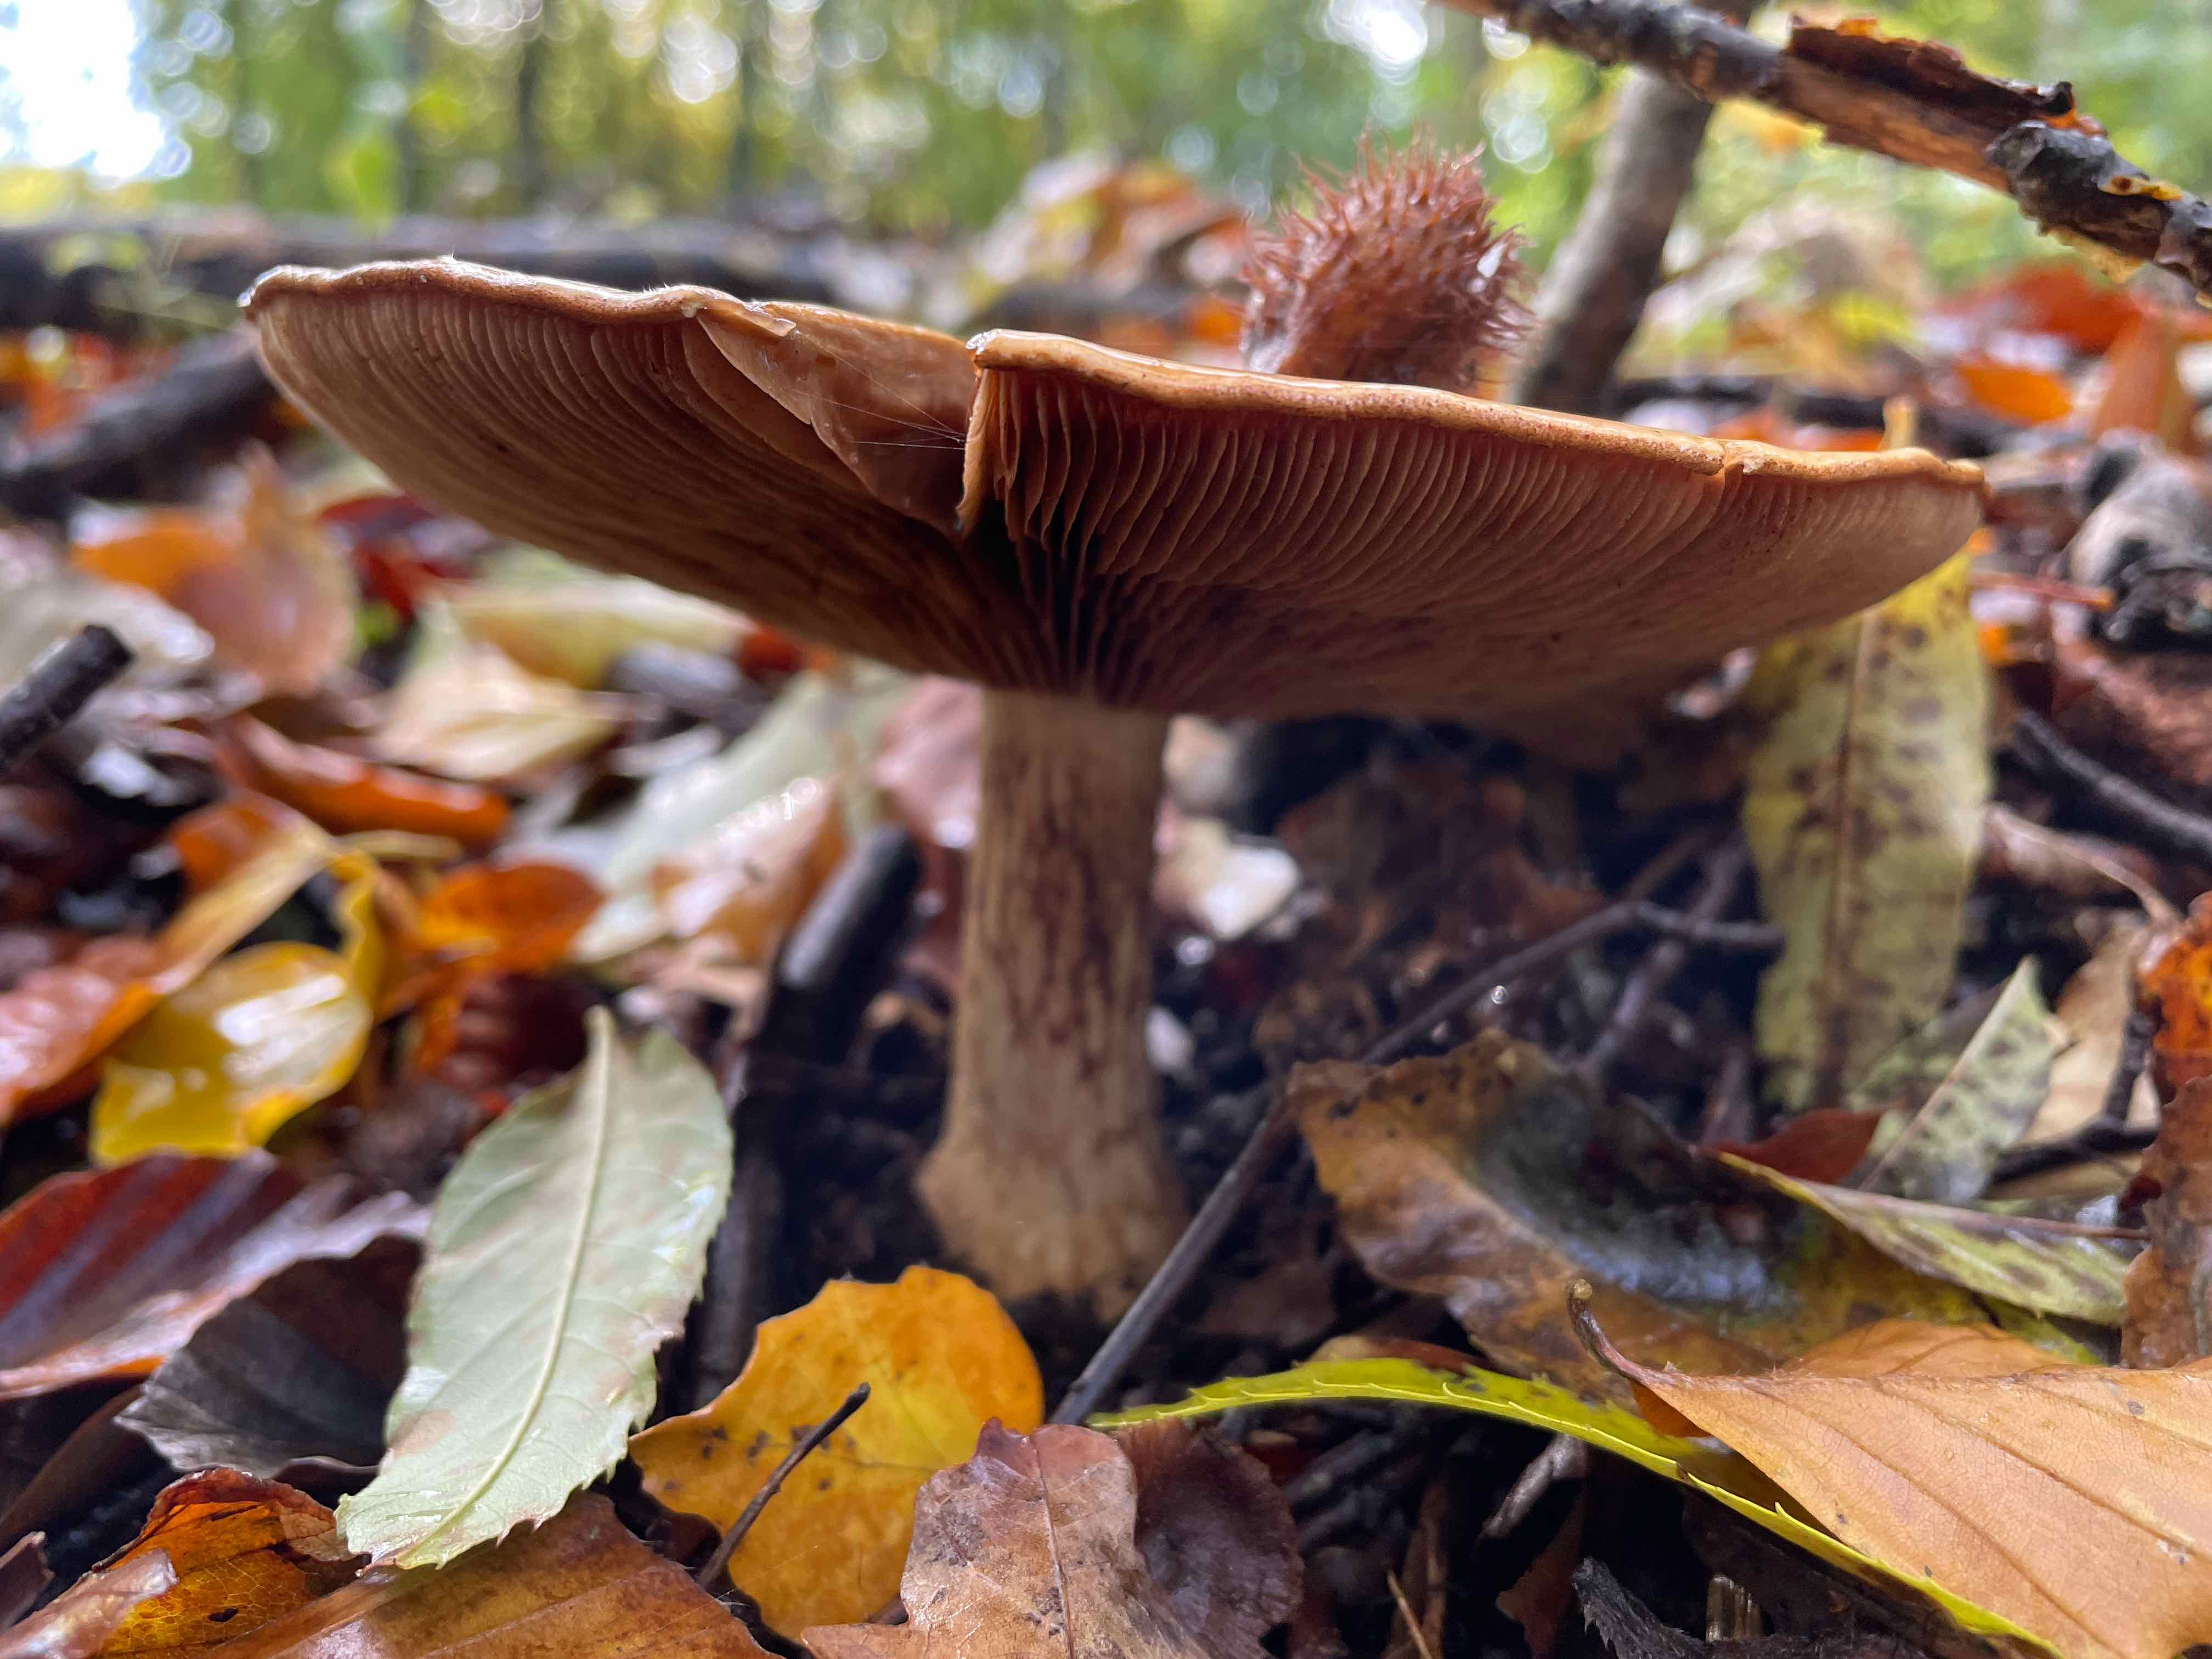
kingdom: Fungi
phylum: Basidiomycota
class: Agaricomycetes
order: Agaricales
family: Cortinariaceae
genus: Cortinarius
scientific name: Cortinarius
